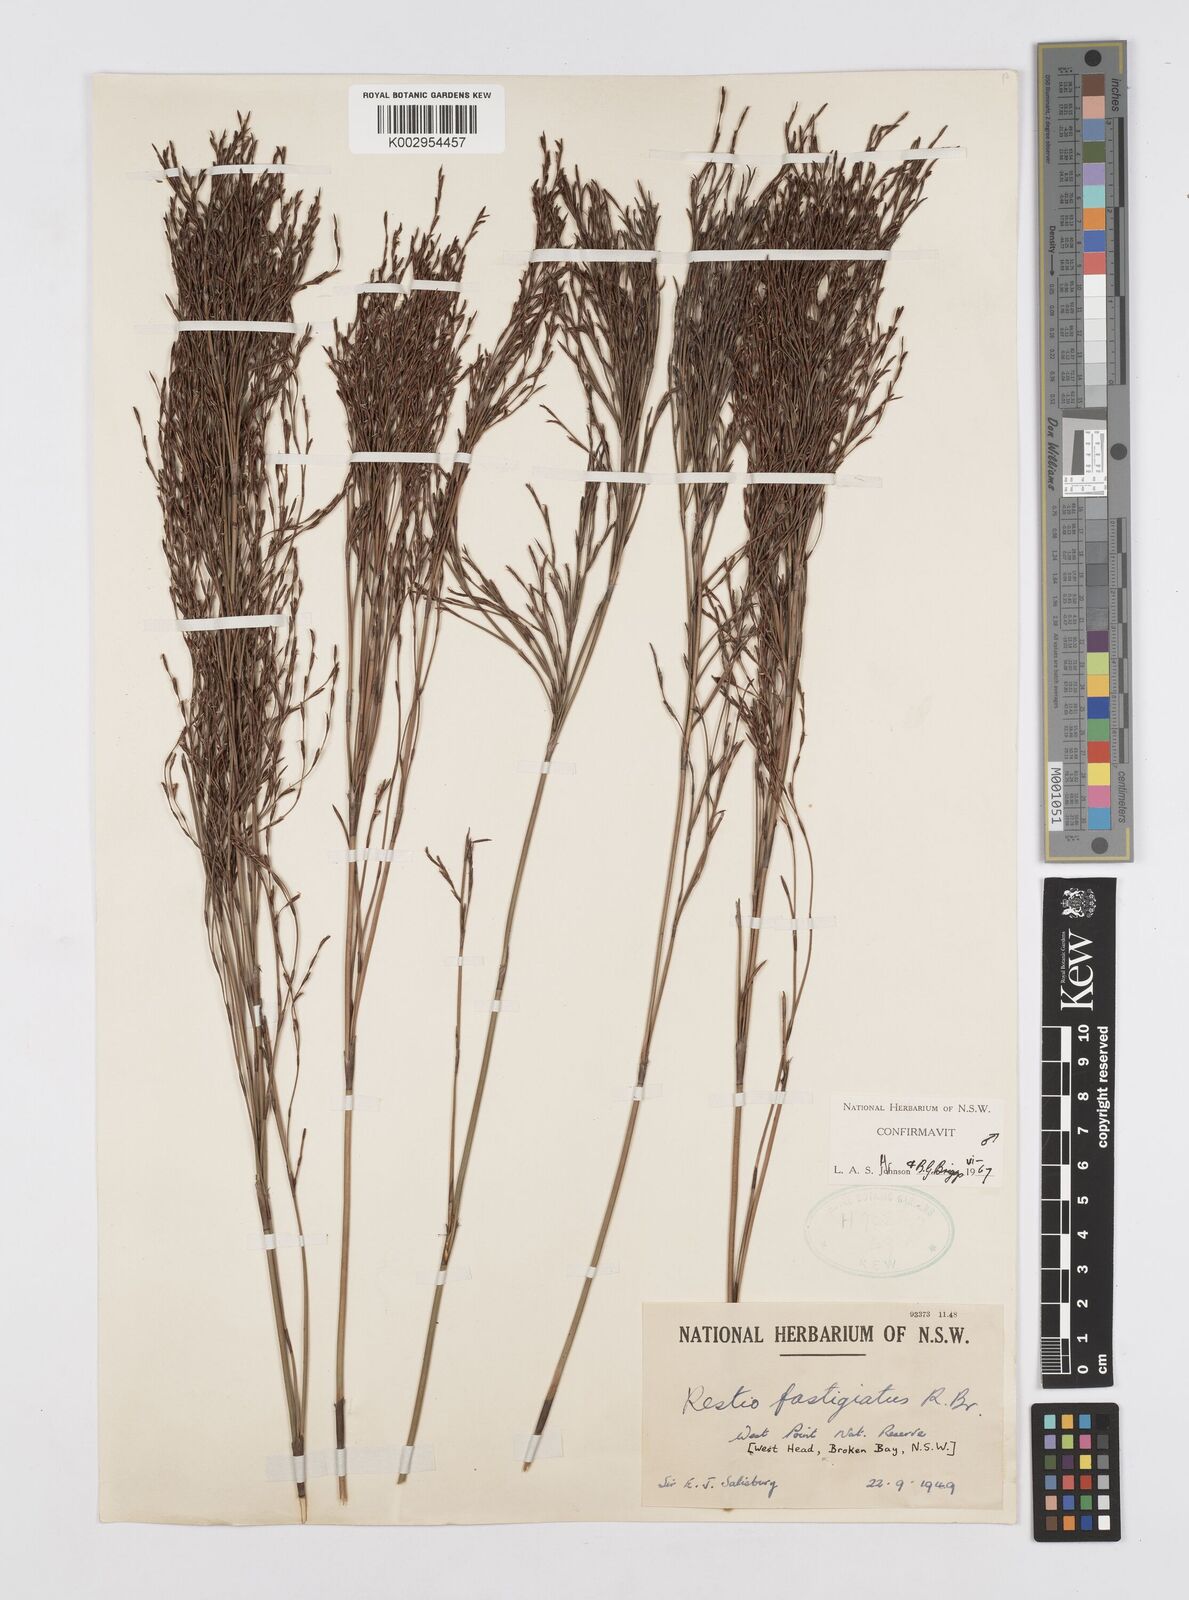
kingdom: Plantae
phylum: Tracheophyta
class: Liliopsida
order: Poales
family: Restionaceae
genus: Chordifex
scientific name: Chordifex fastigiatus
